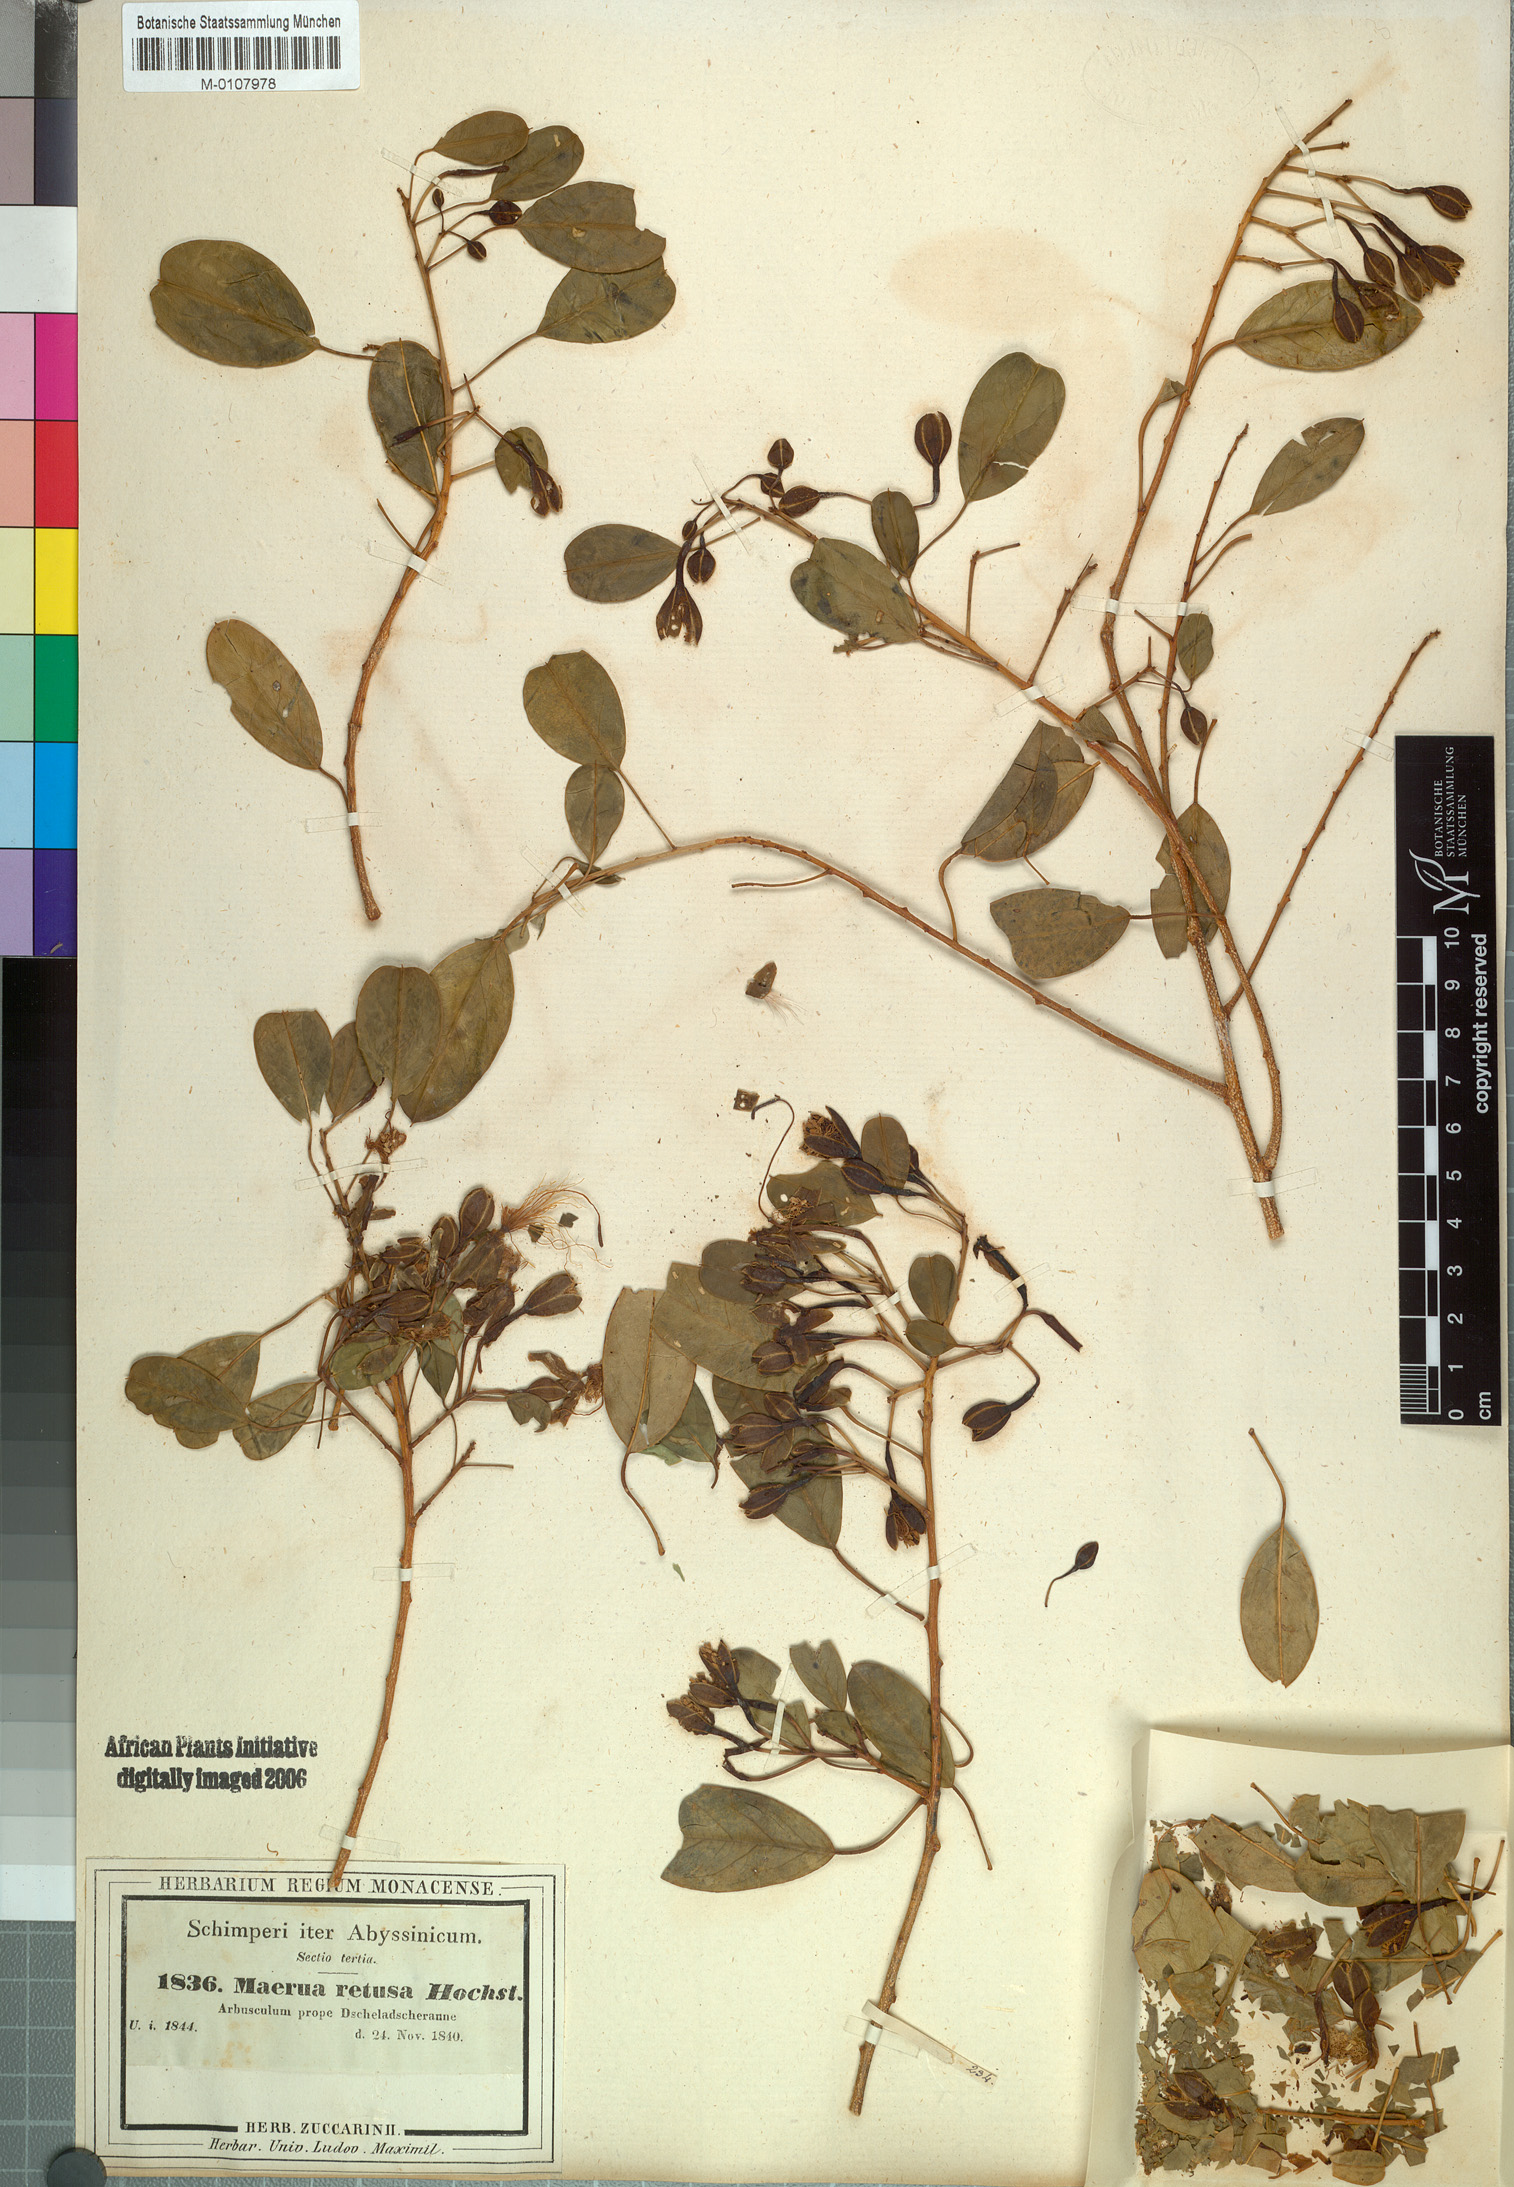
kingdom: Plantae
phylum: Tracheophyta
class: Magnoliopsida
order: Brassicales
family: Capparaceae
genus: Maerua
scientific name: Maerua angolensis
